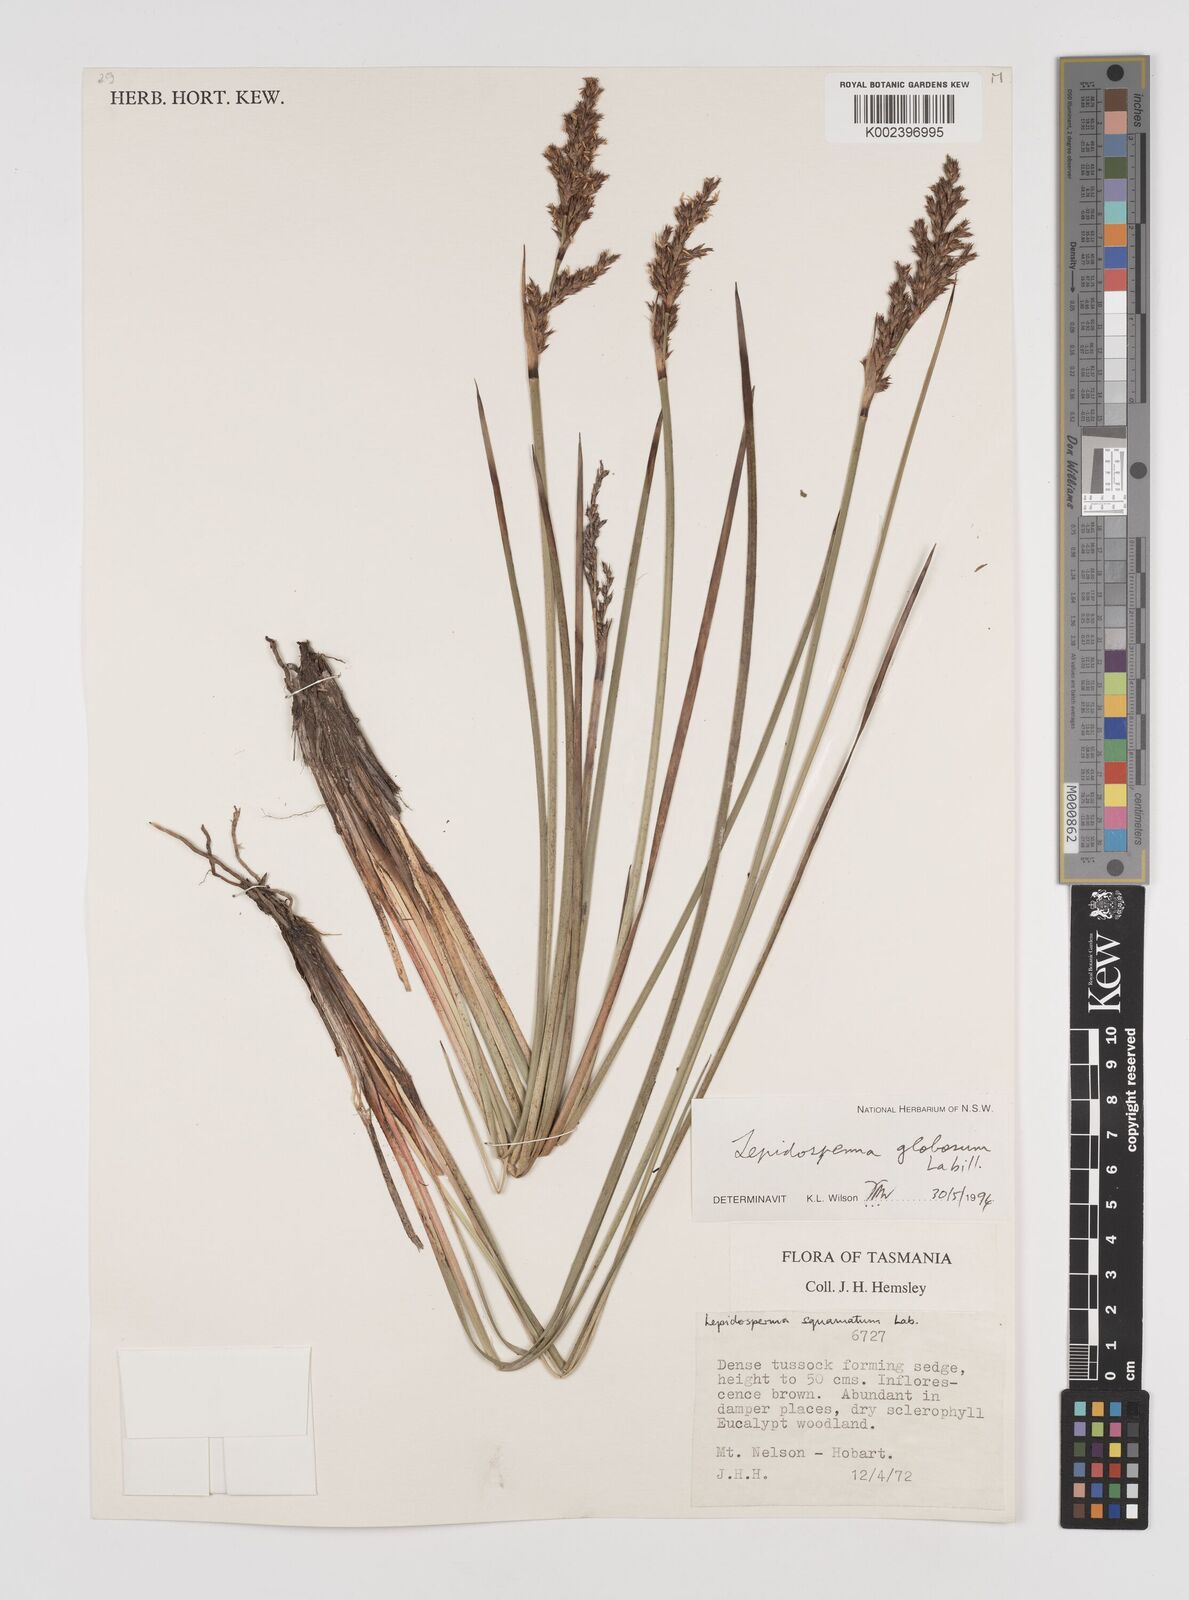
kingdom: Plantae
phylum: Tracheophyta
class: Liliopsida
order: Poales
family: Cyperaceae
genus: Lepidosperma
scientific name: Lepidosperma globosum
